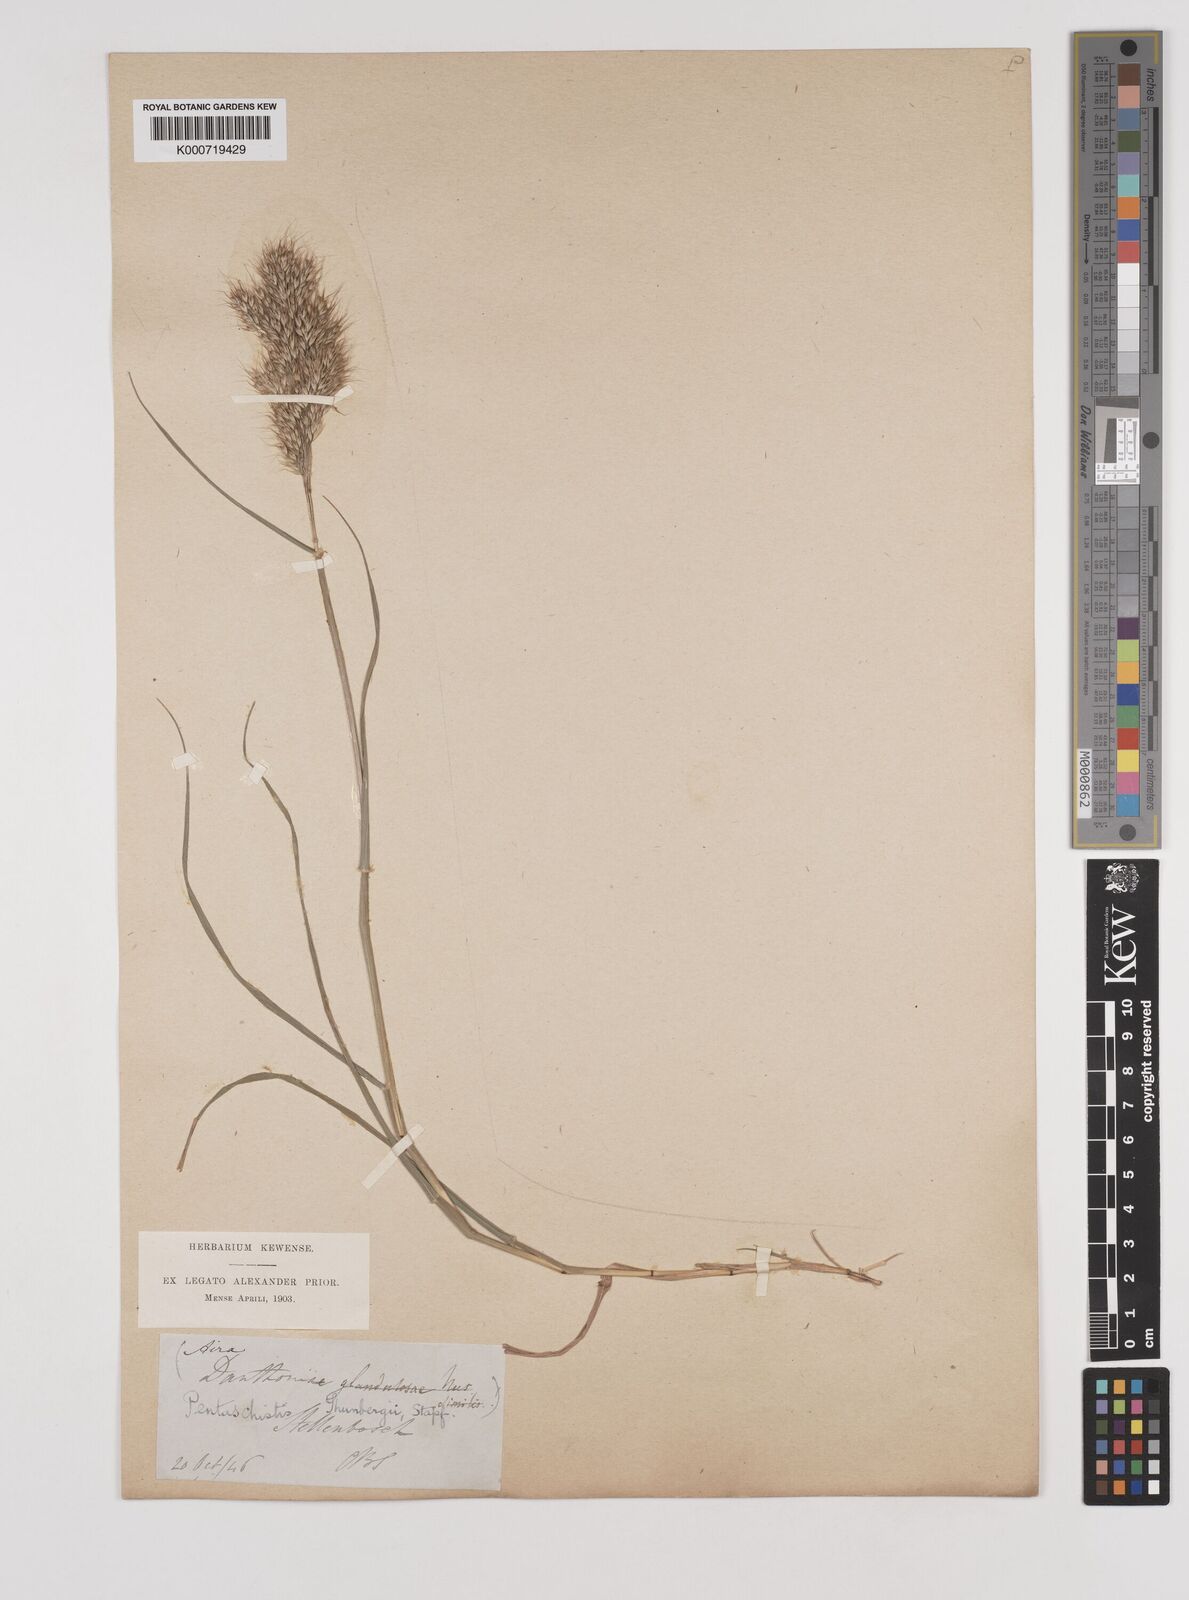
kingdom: Plantae
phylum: Tracheophyta
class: Liliopsida
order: Poales
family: Poaceae
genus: Pentameris
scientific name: Pentameris triseta
